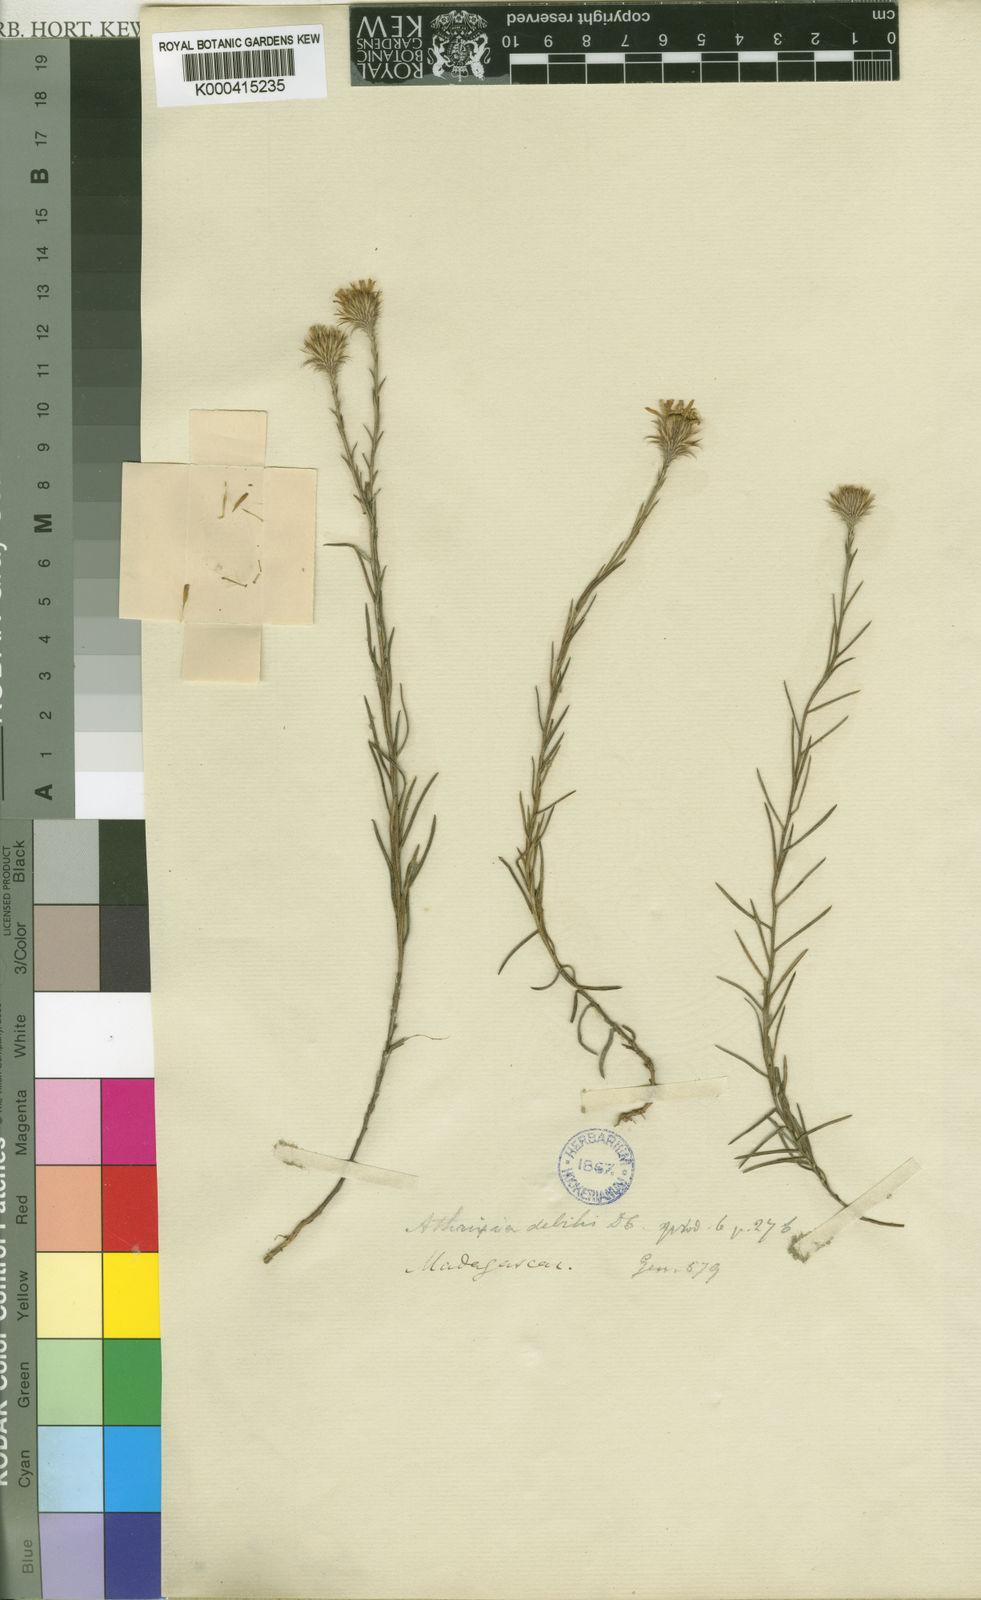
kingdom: Plantae
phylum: Tracheophyta
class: Magnoliopsida
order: Asterales
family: Asteraceae
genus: Athrixia
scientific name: Athrixia debilis
